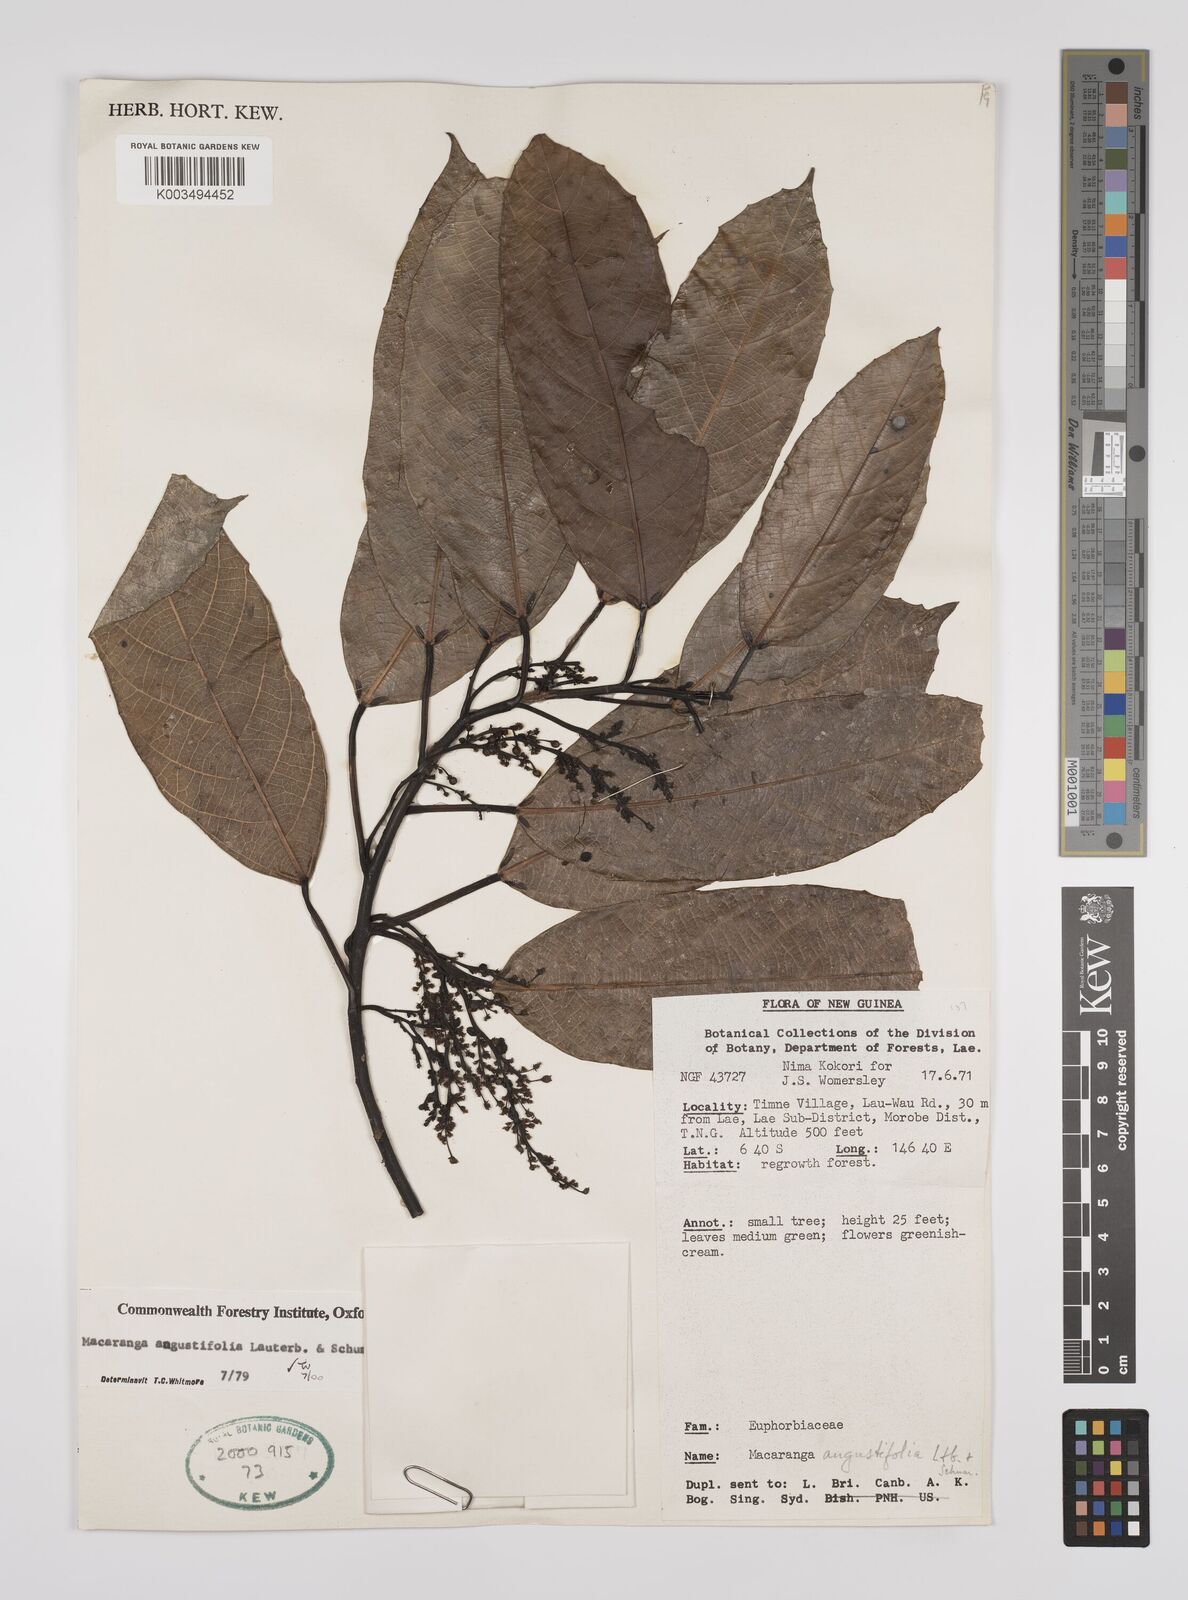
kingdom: Plantae
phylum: Tracheophyta
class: Magnoliopsida
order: Malpighiales
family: Euphorbiaceae
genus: Macaranga
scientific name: Macaranga angustifolia
